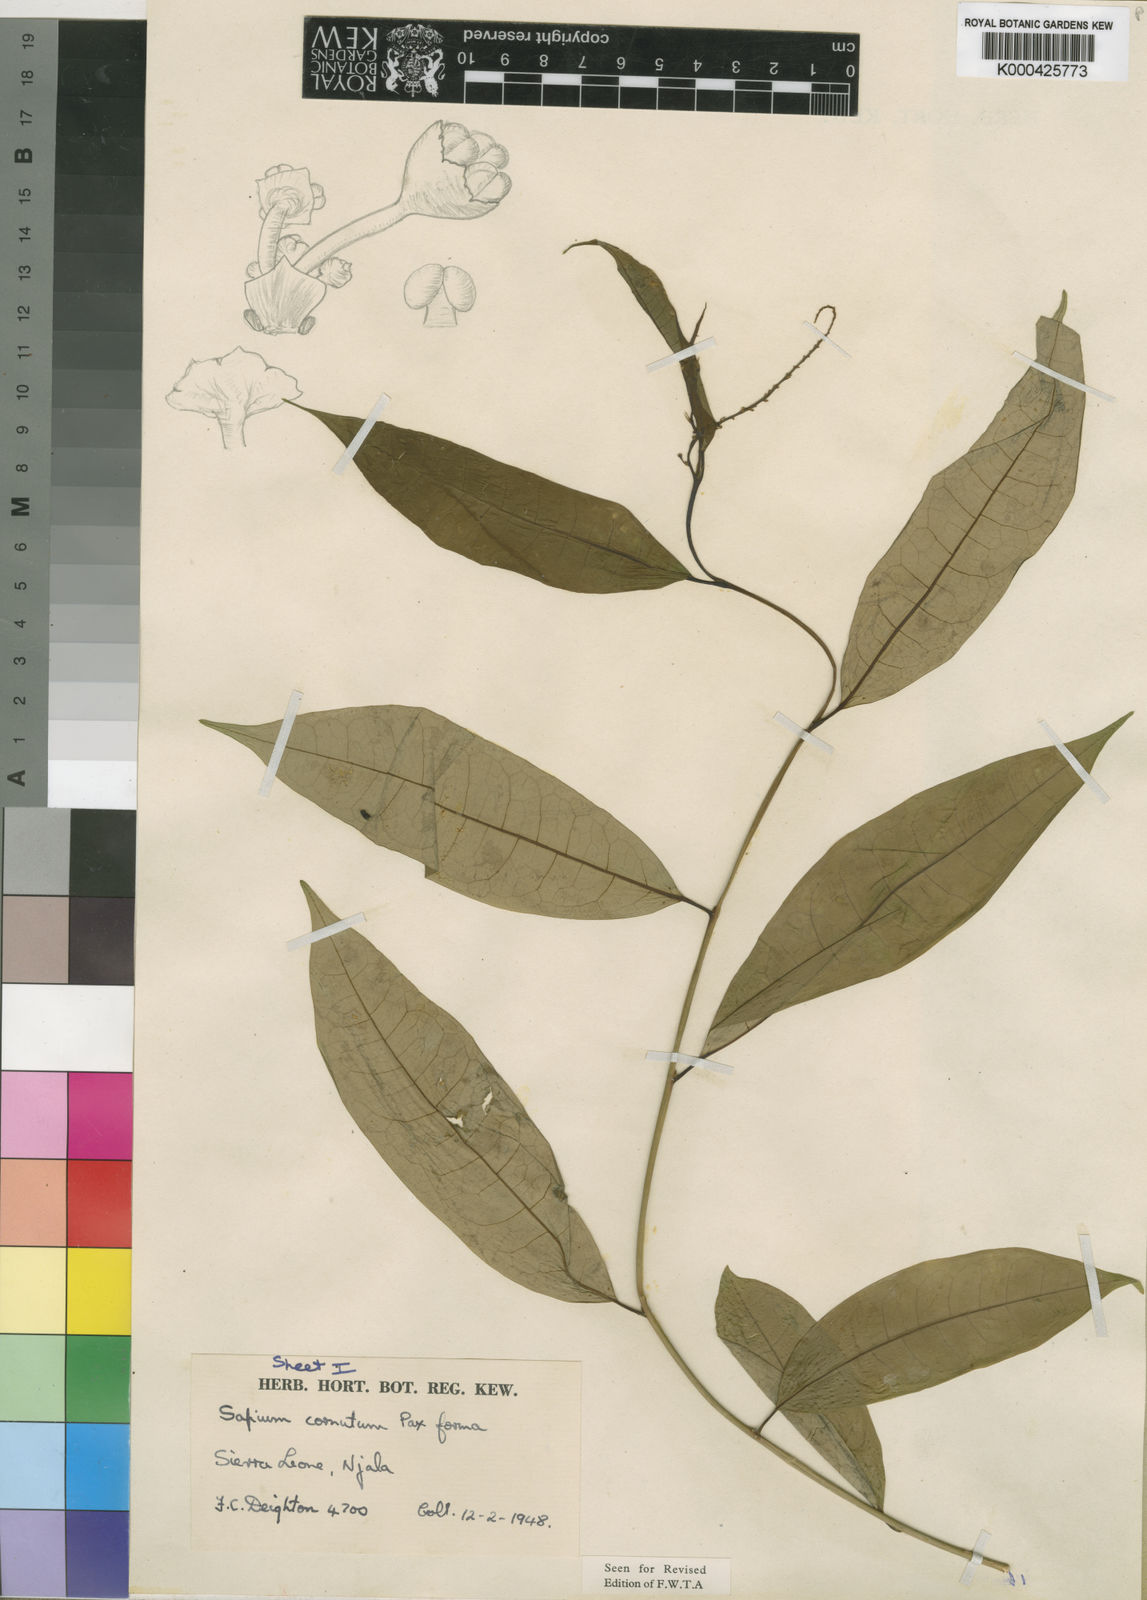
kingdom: Plantae
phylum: Tracheophyta
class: Magnoliopsida
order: Malpighiales
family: Euphorbiaceae
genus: Sapium
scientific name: Sapium
